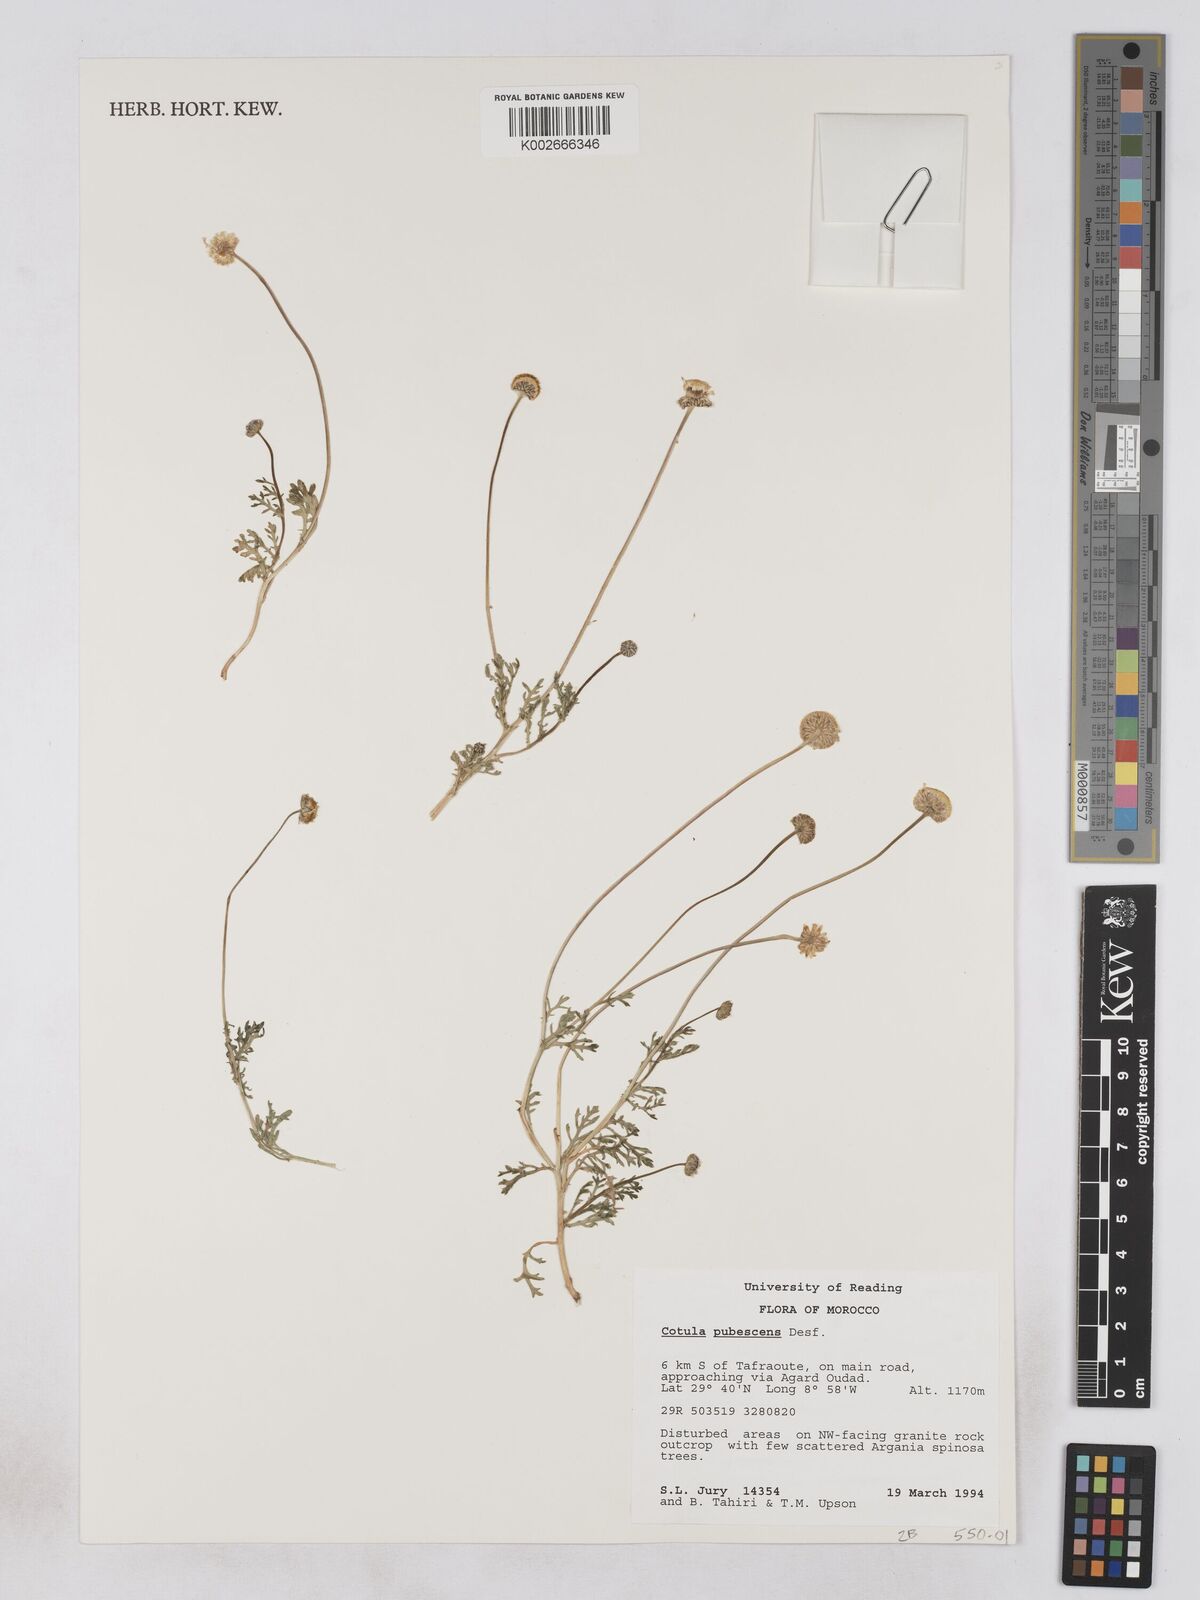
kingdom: Plantae
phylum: Tracheophyta
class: Magnoliopsida
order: Asterales
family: Asteraceae
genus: Otoglyphis
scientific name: Otoglyphis pubescens
